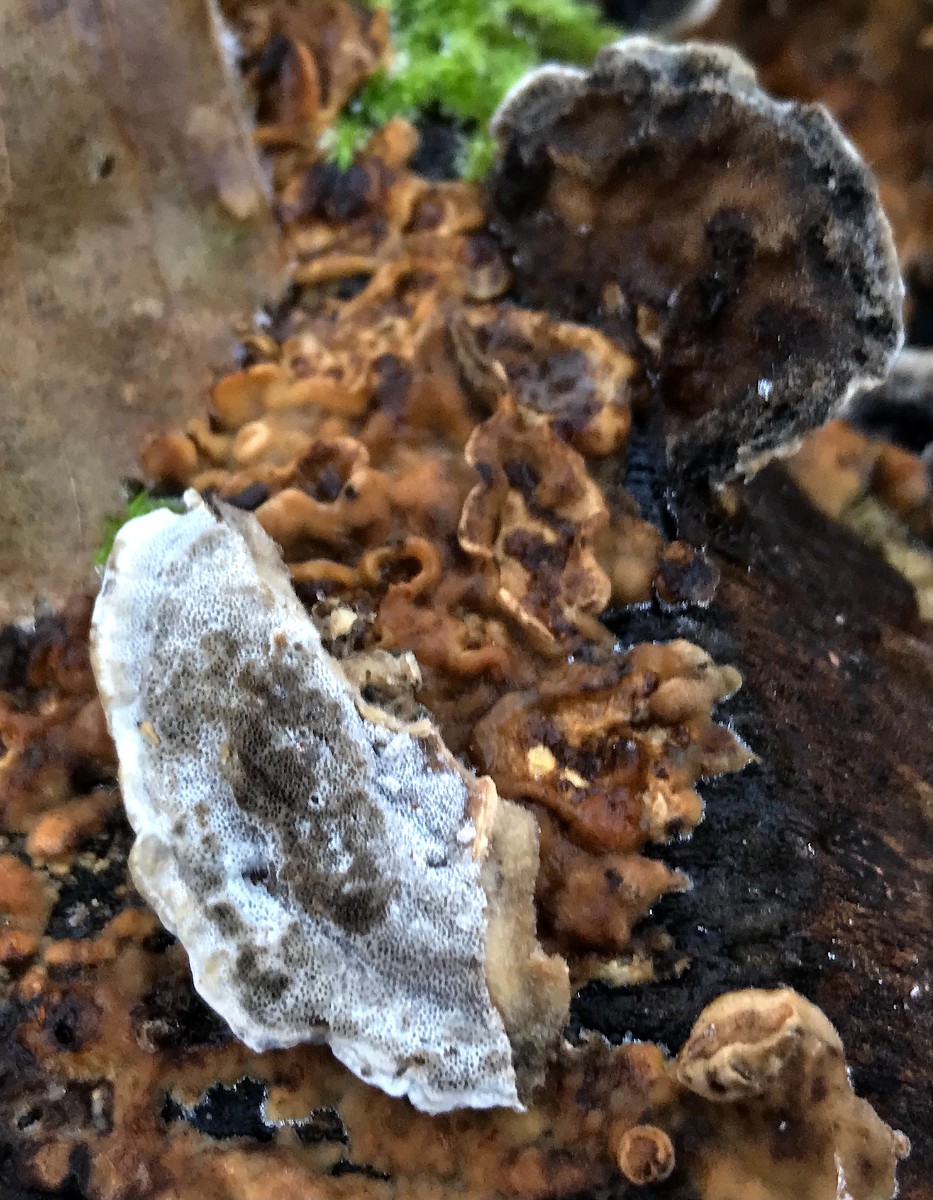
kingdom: Fungi
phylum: Basidiomycota
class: Agaricomycetes
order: Polyporales
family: Phanerochaetaceae
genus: Bjerkandera
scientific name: Bjerkandera adusta
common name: sveden sodporesvamp
